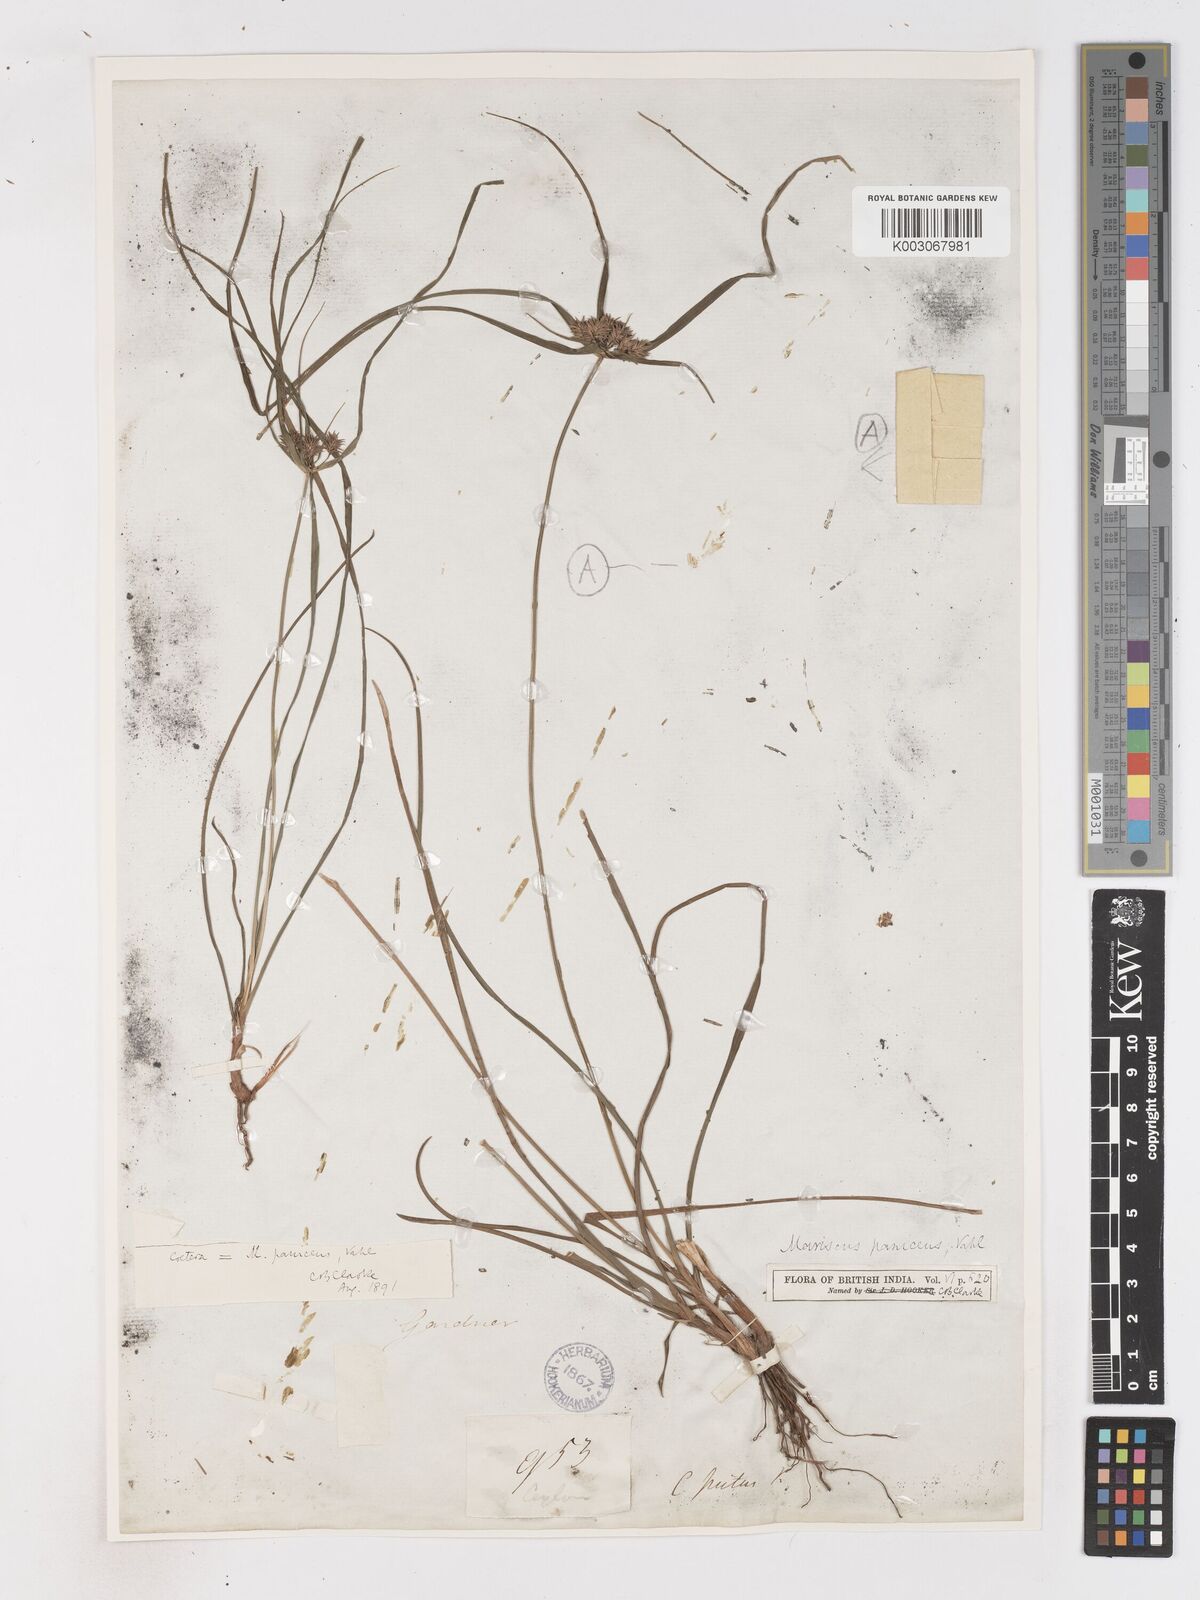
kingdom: Plantae
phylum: Tracheophyta
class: Liliopsida
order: Poales
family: Cyperaceae
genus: Cyperus
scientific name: Cyperus paniceus
